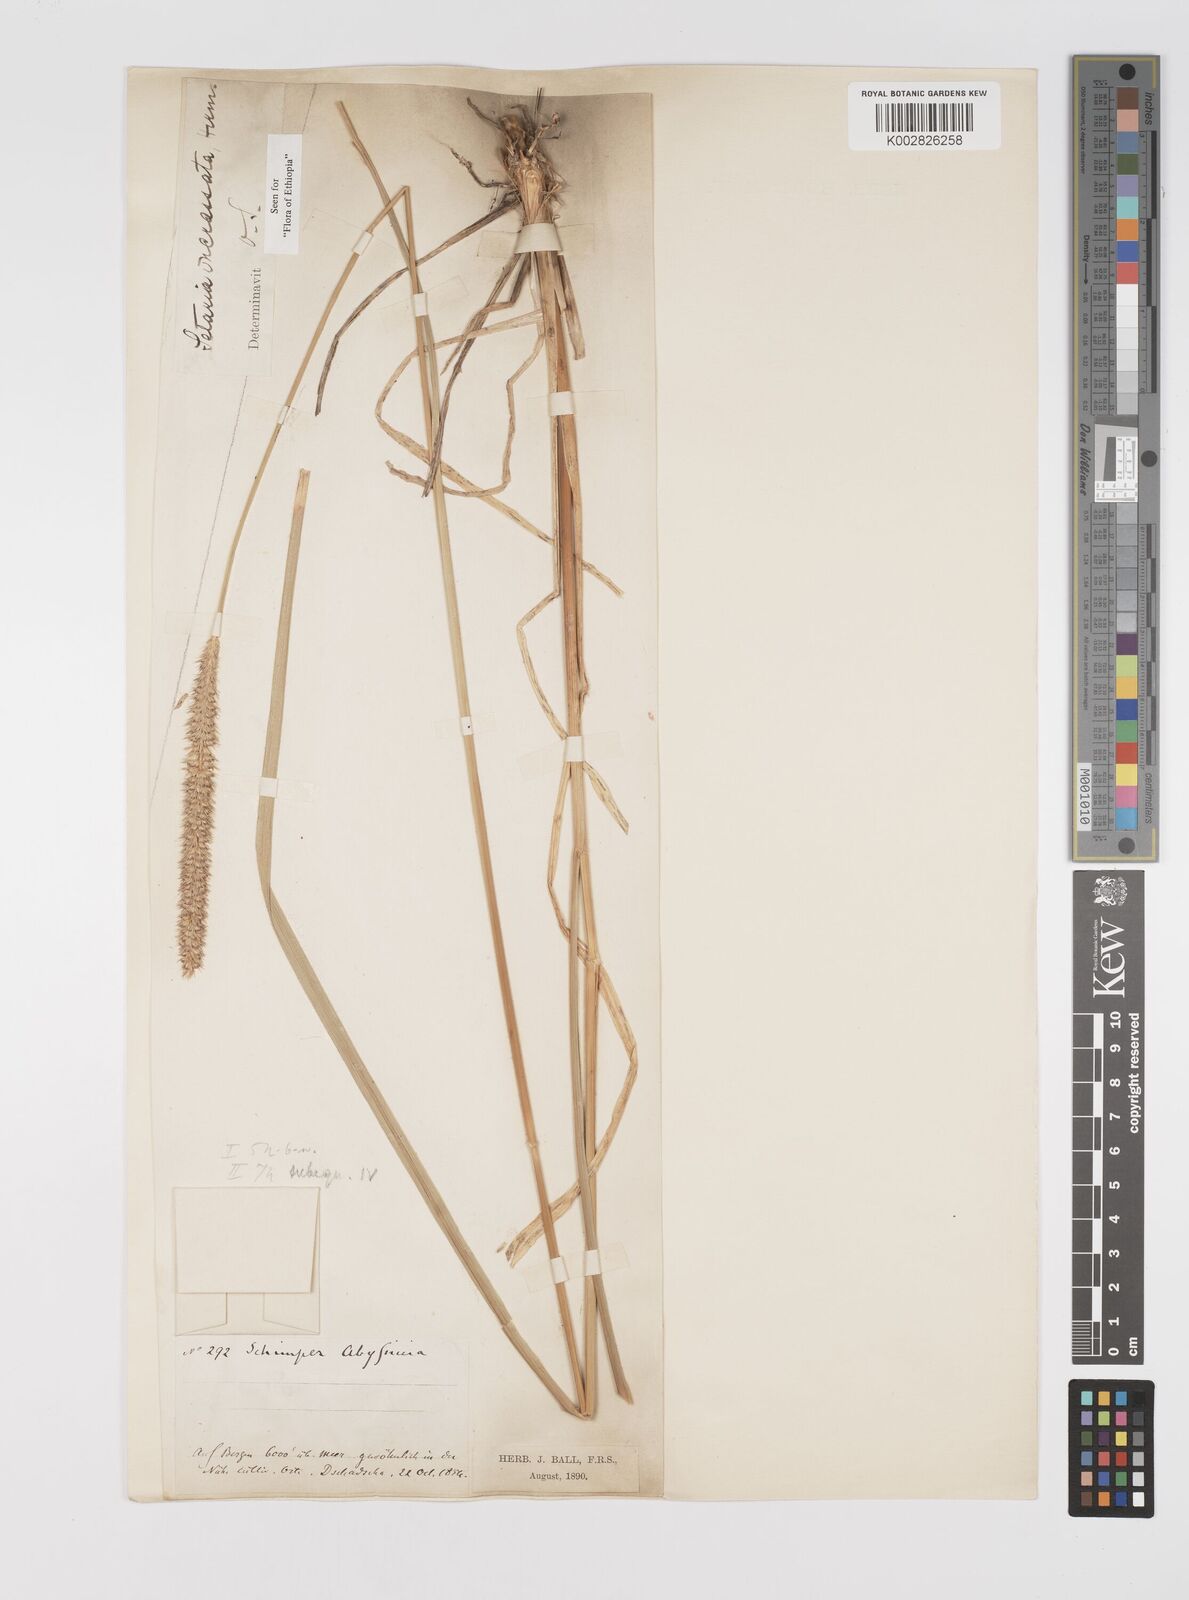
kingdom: Plantae
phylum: Tracheophyta
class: Liliopsida
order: Poales
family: Poaceae
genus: Setaria
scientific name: Setaria incrassata
